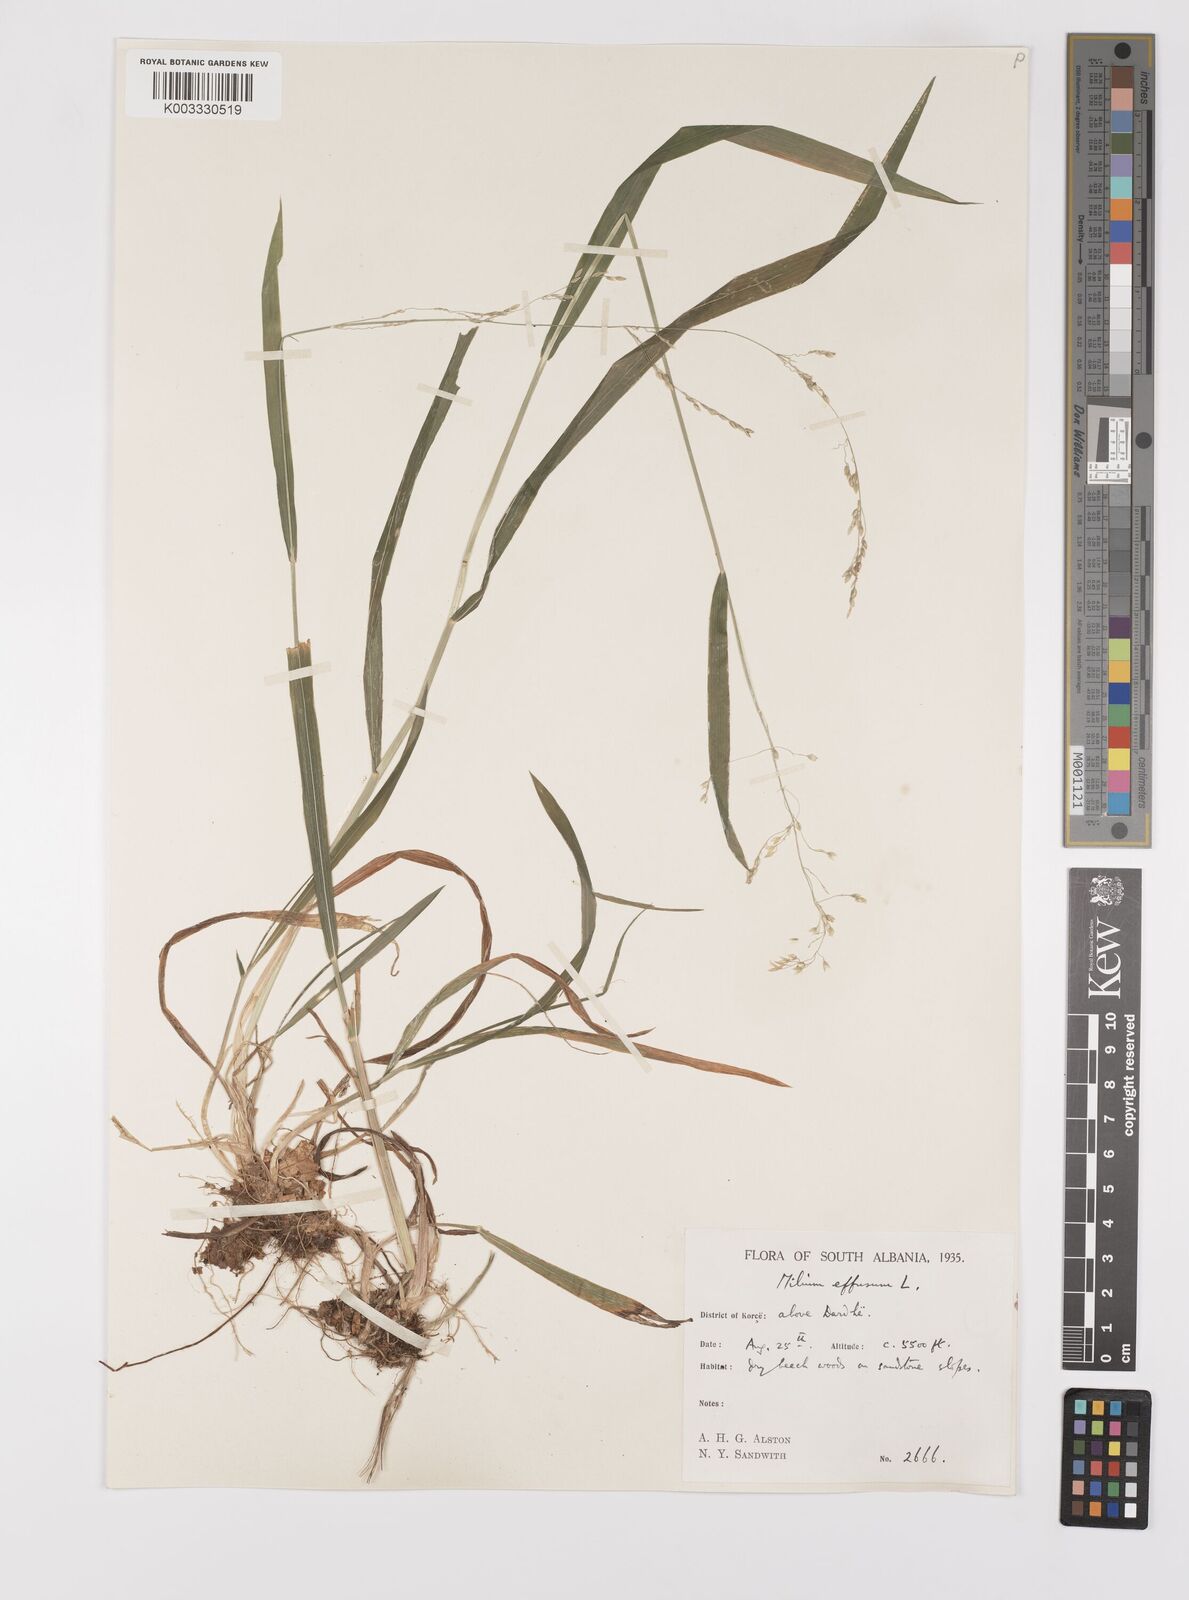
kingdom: Plantae
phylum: Tracheophyta
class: Liliopsida
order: Poales
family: Poaceae
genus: Milium
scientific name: Milium
